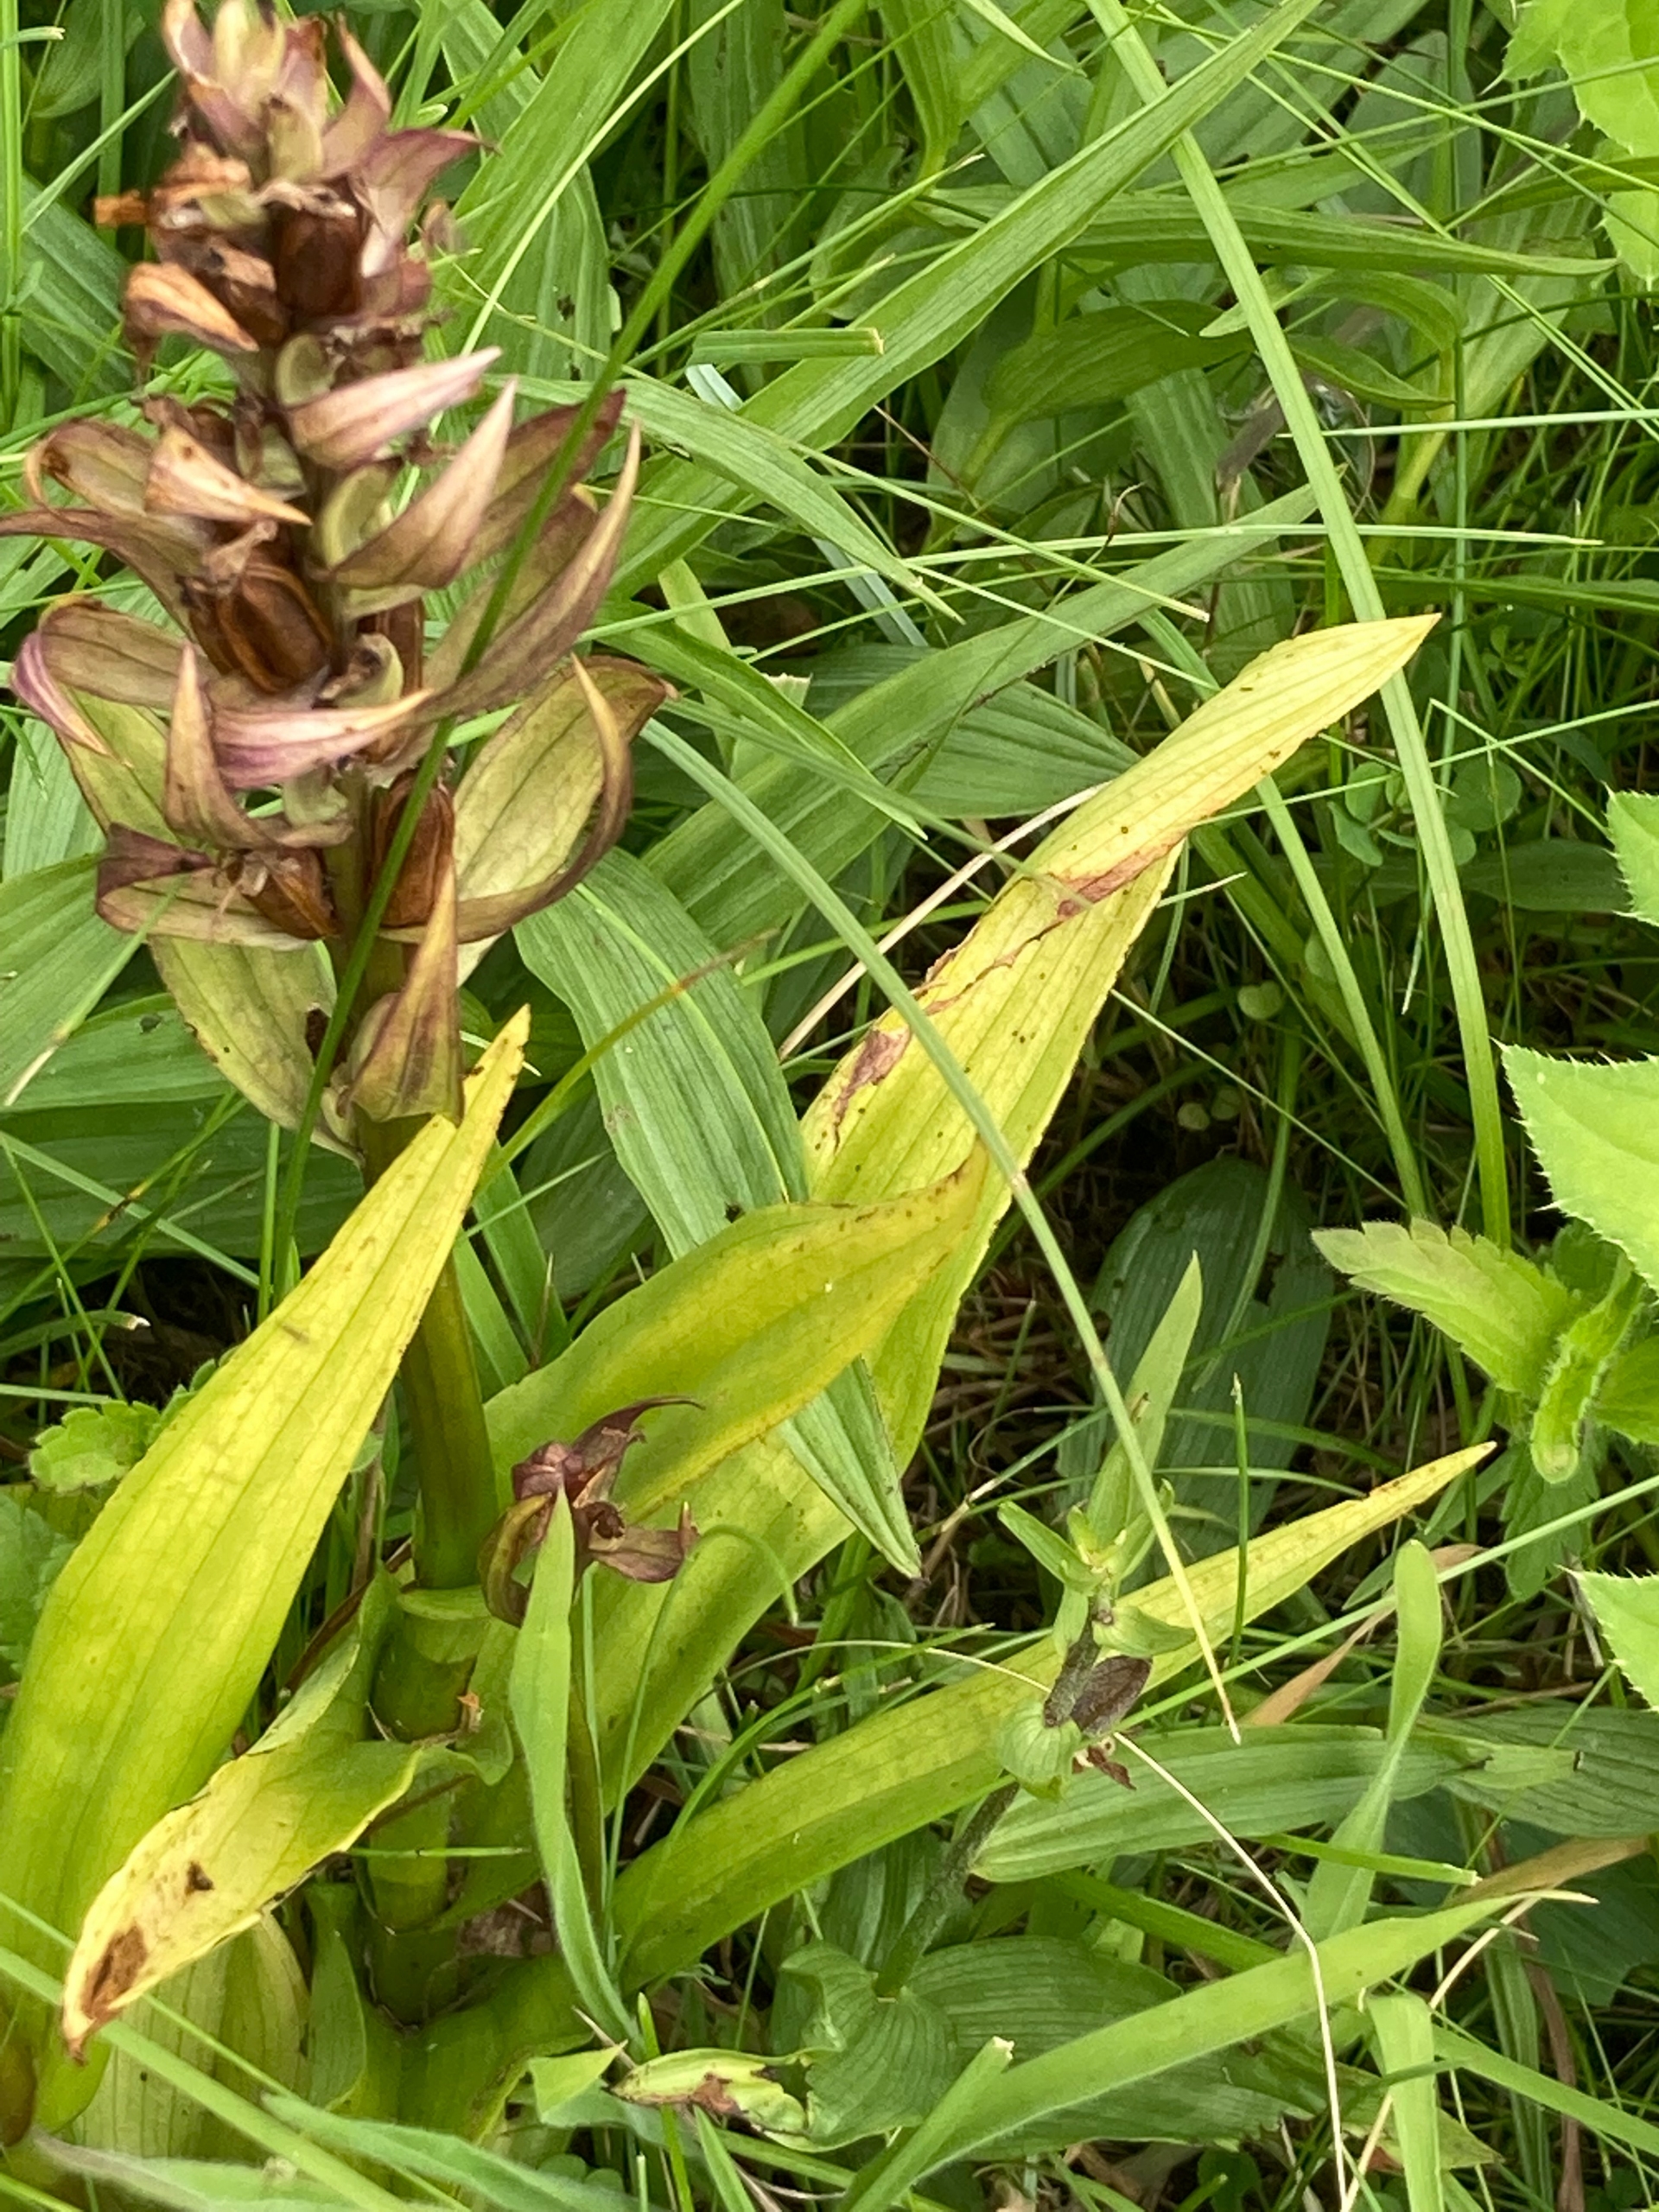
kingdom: Plantae
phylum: Tracheophyta
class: Liliopsida
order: Asparagales
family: Orchidaceae
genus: Dactylorhiza
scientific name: Dactylorhiza majalis
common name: Maj-gøgeurt
